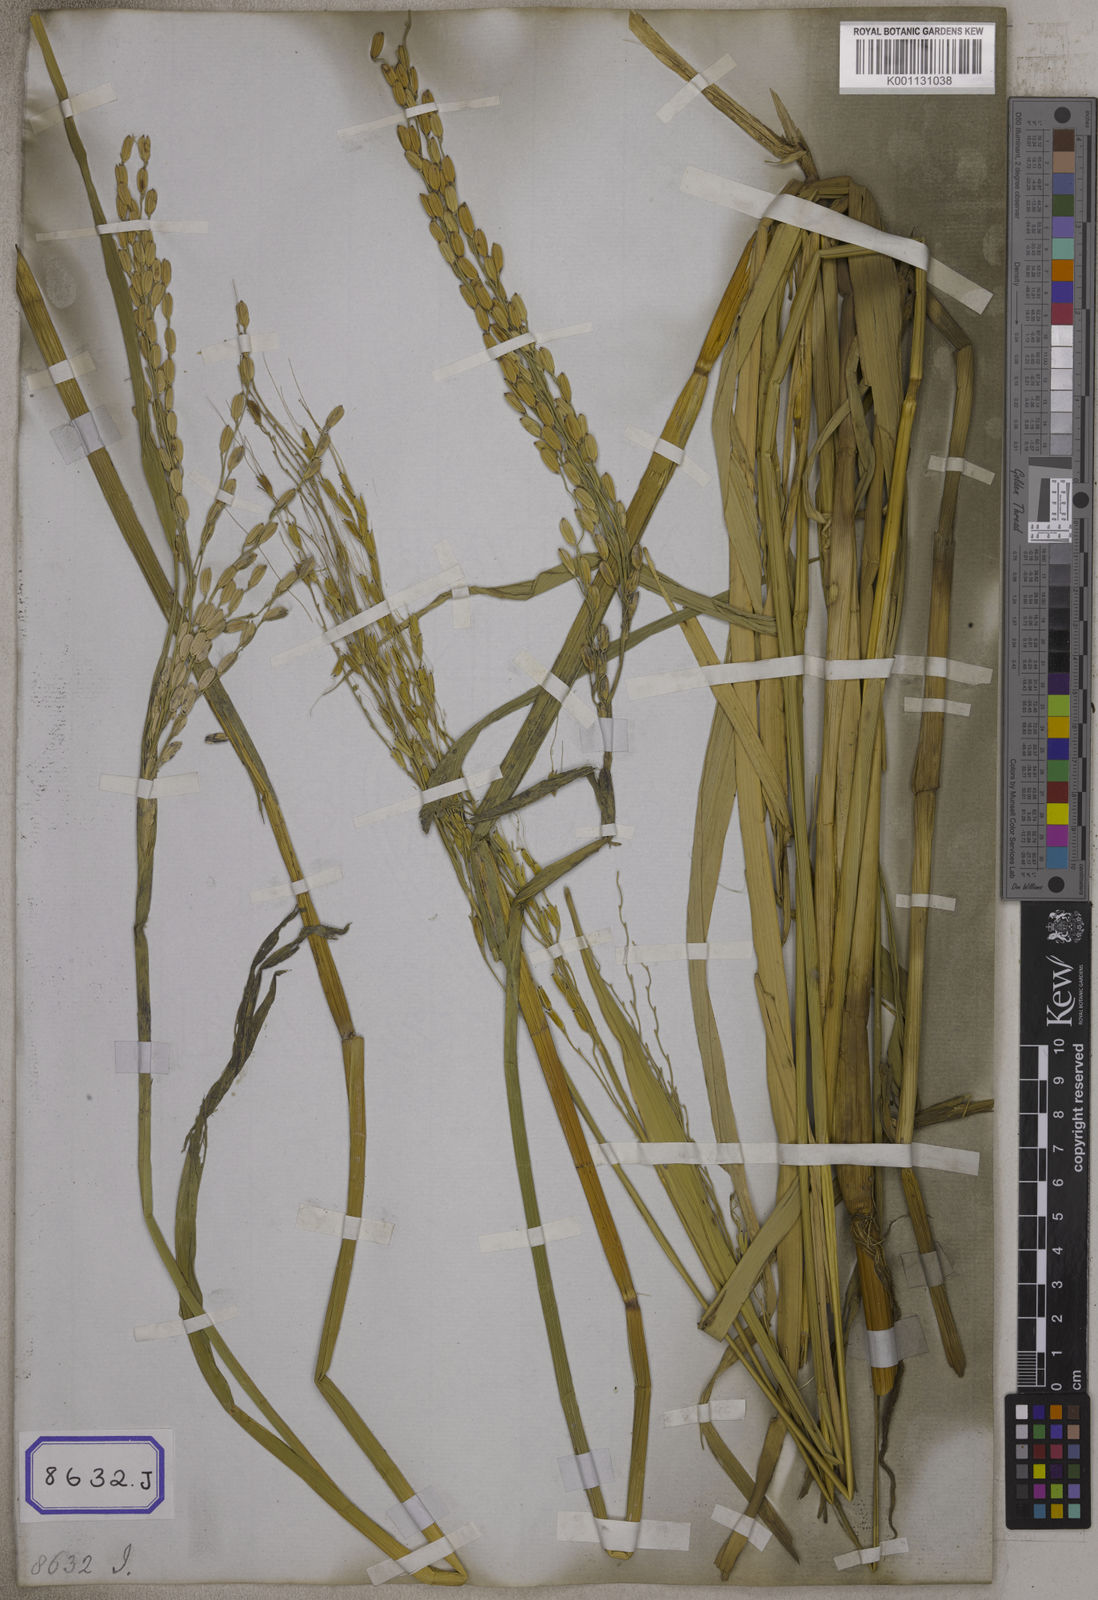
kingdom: Plantae
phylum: Tracheophyta
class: Liliopsida
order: Poales
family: Poaceae
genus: Oryza
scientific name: Oryza sativa
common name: Rice
